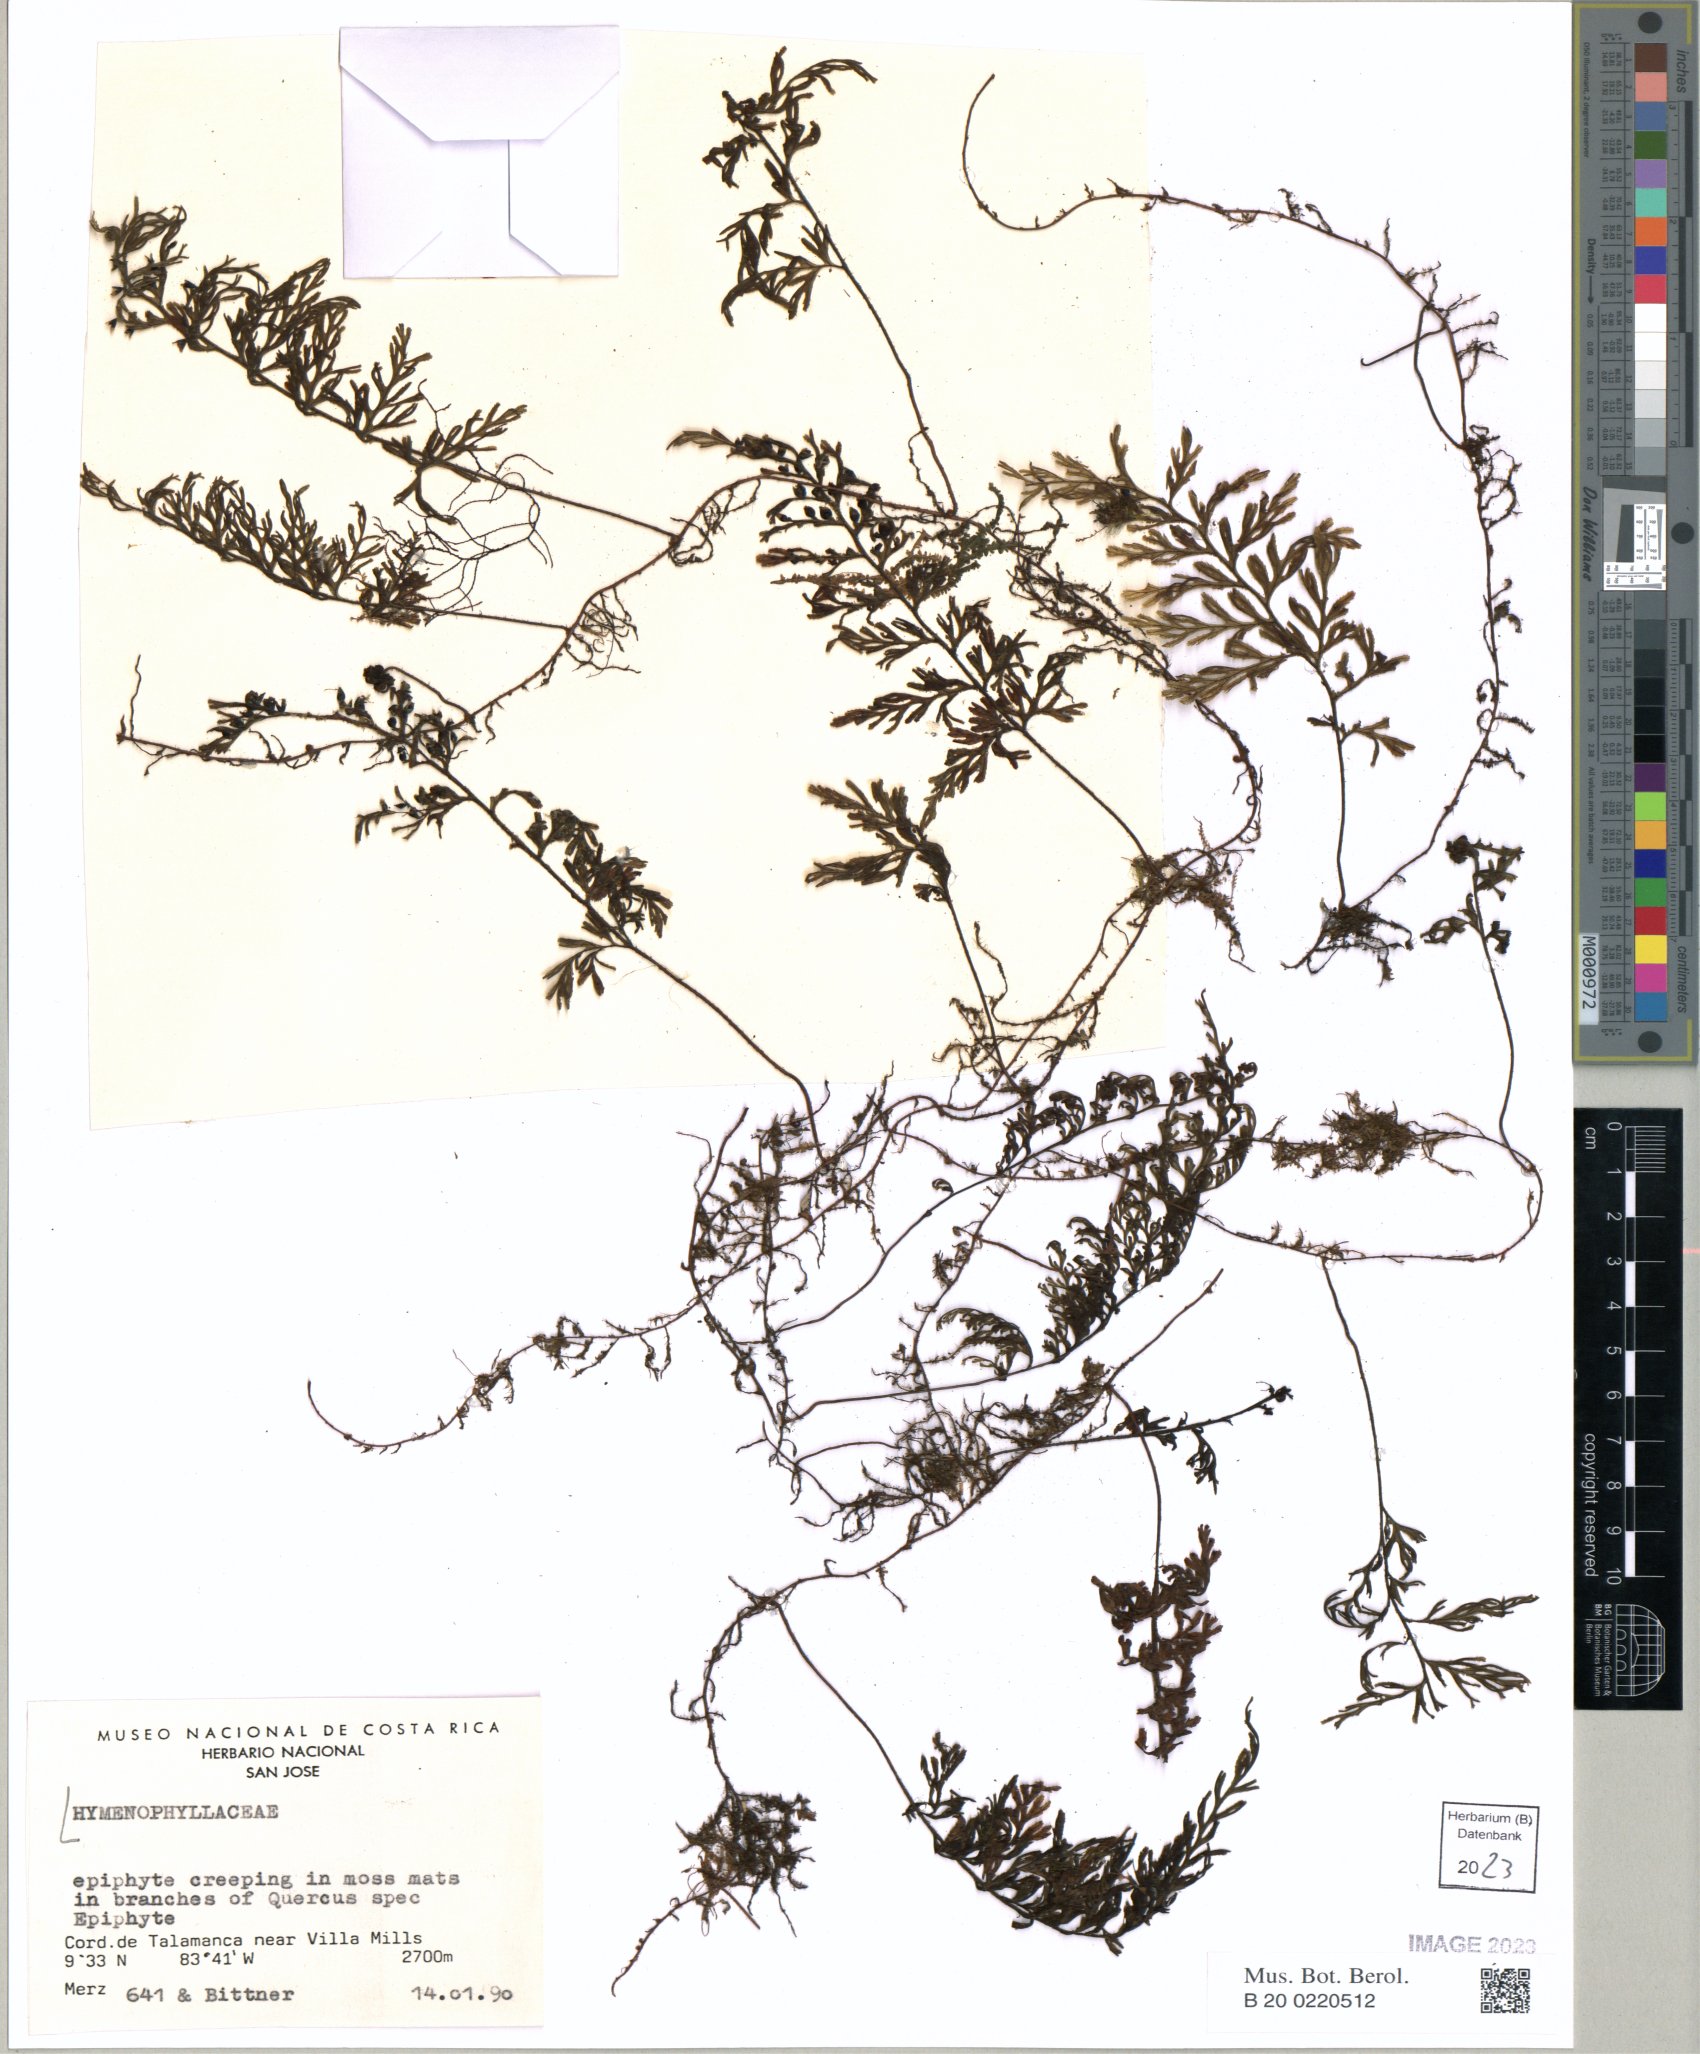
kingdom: Plantae
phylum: Tracheophyta
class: Polypodiopsida
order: Hymenophyllales
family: Hymenophyllaceae
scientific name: Hymenophyllaceae
